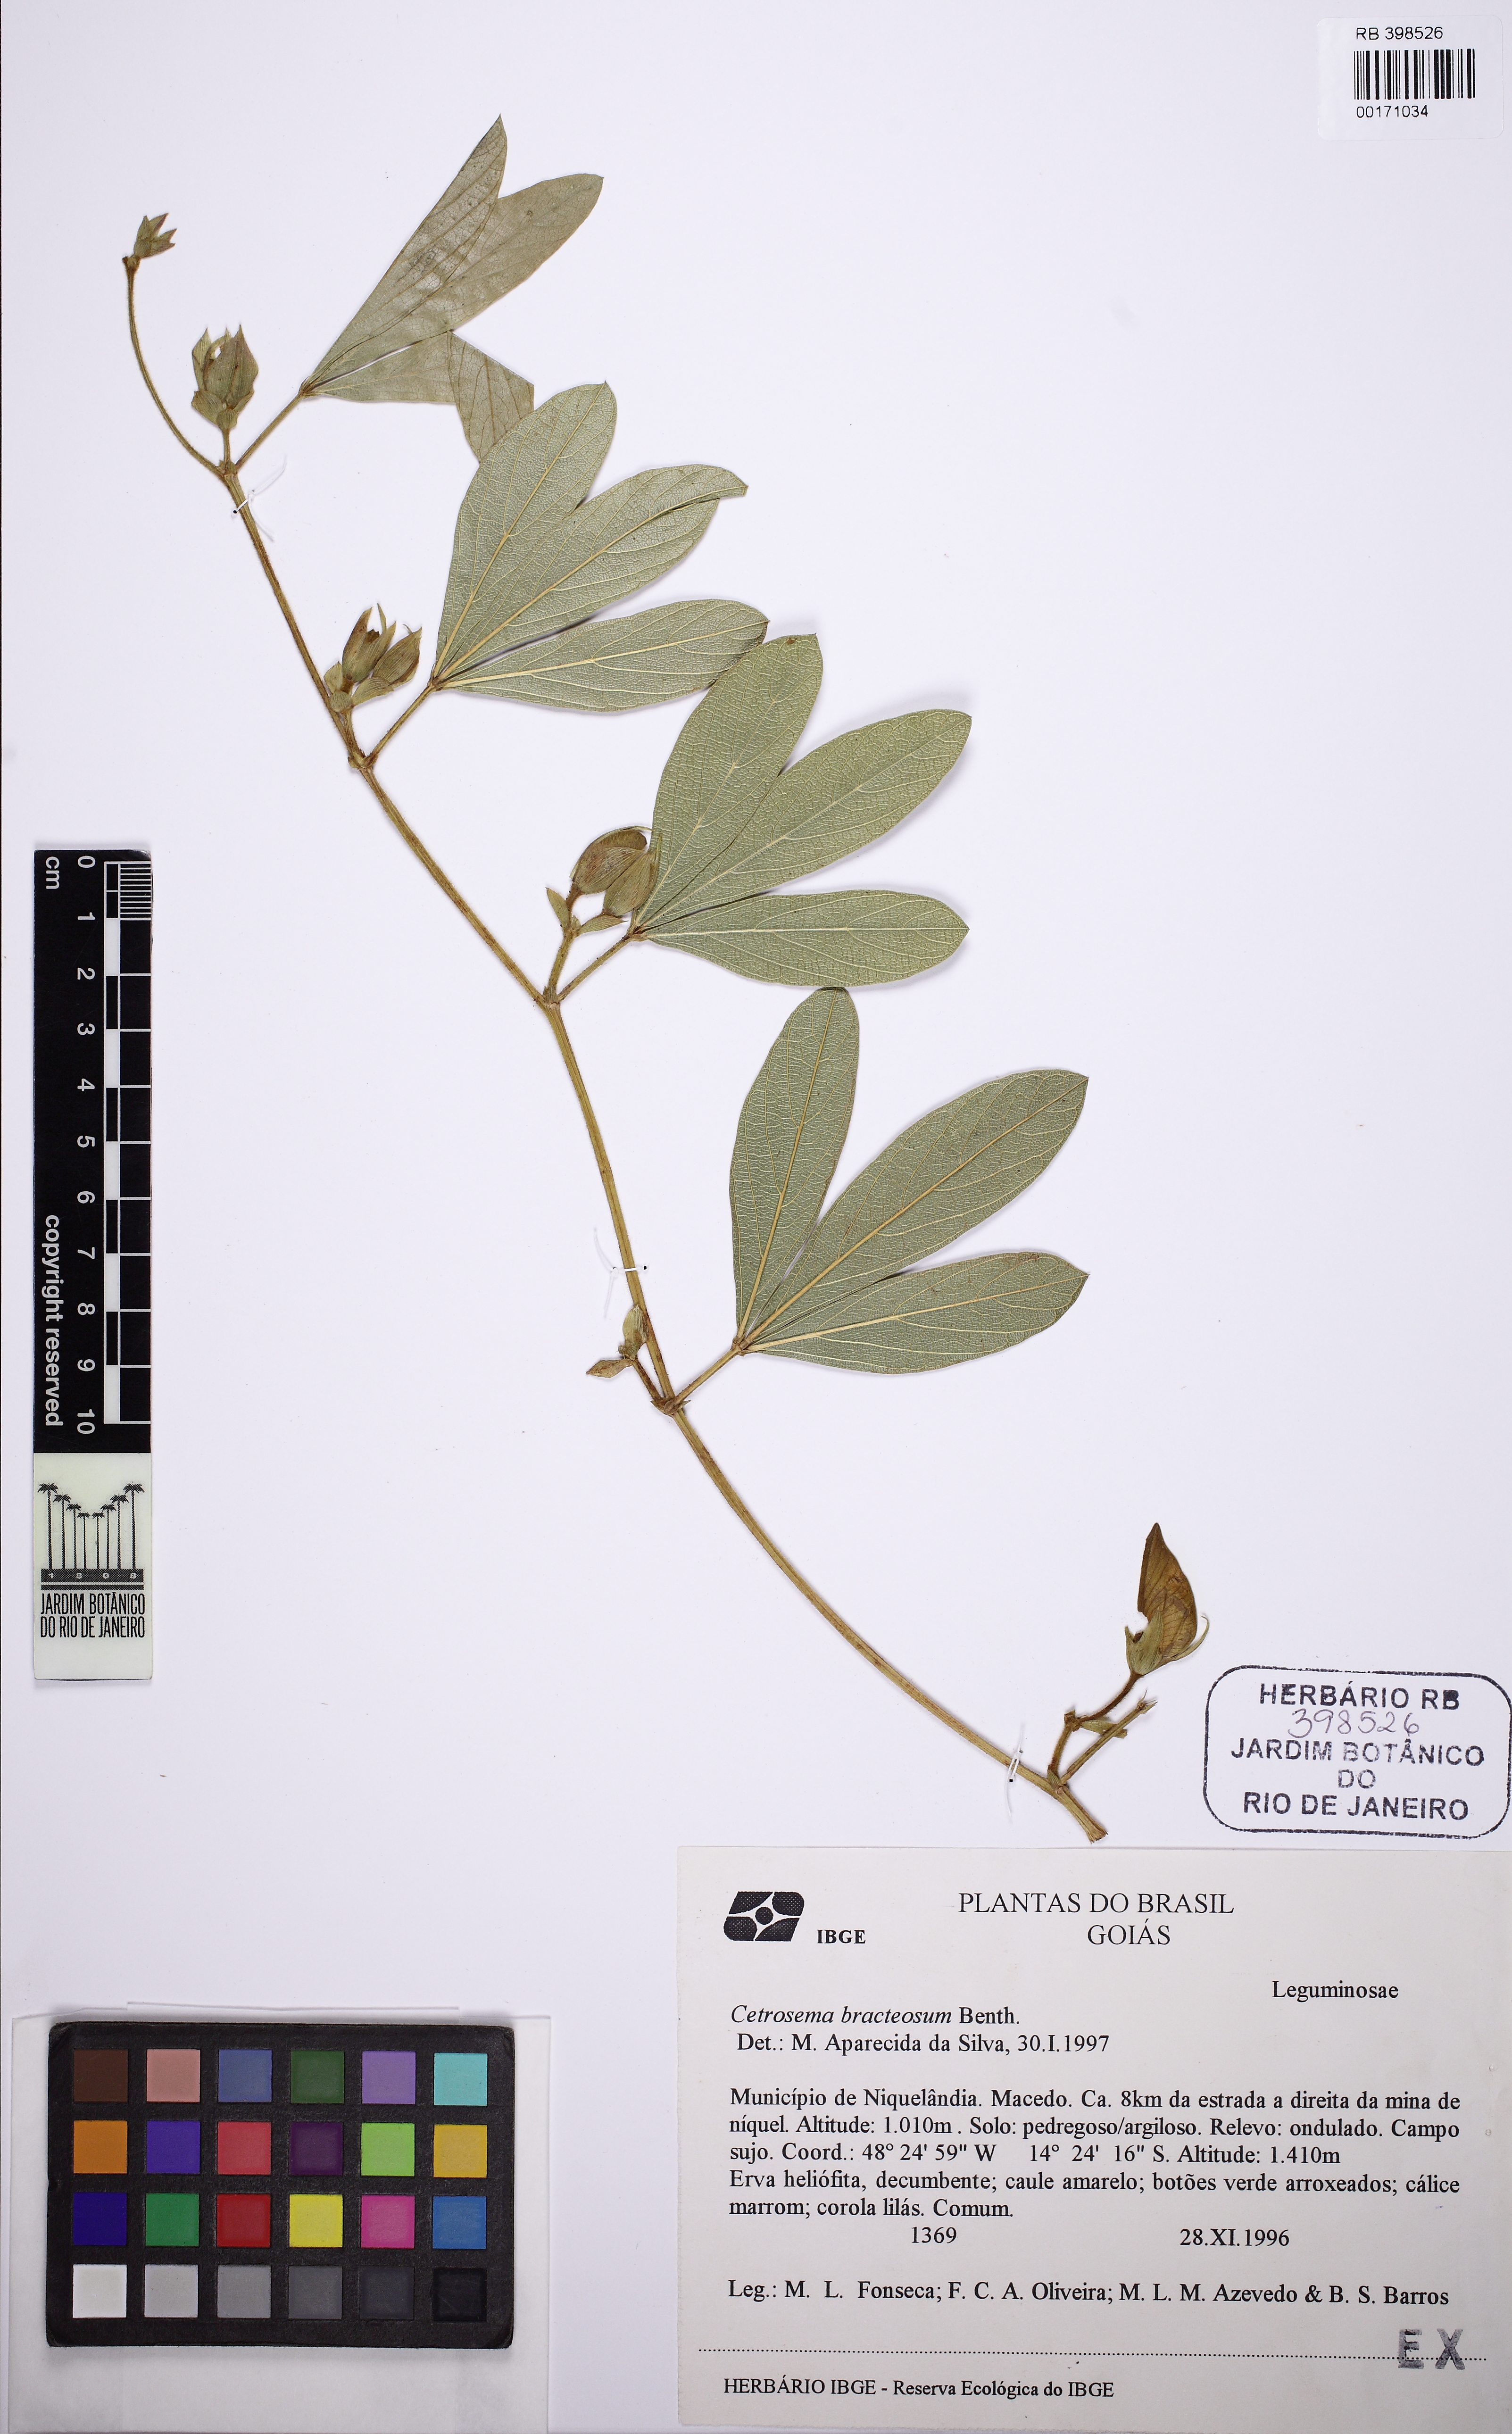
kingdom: Plantae
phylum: Tracheophyta
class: Magnoliopsida
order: Fabales
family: Fabaceae
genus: Centrosema
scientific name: Centrosema bracteosum
